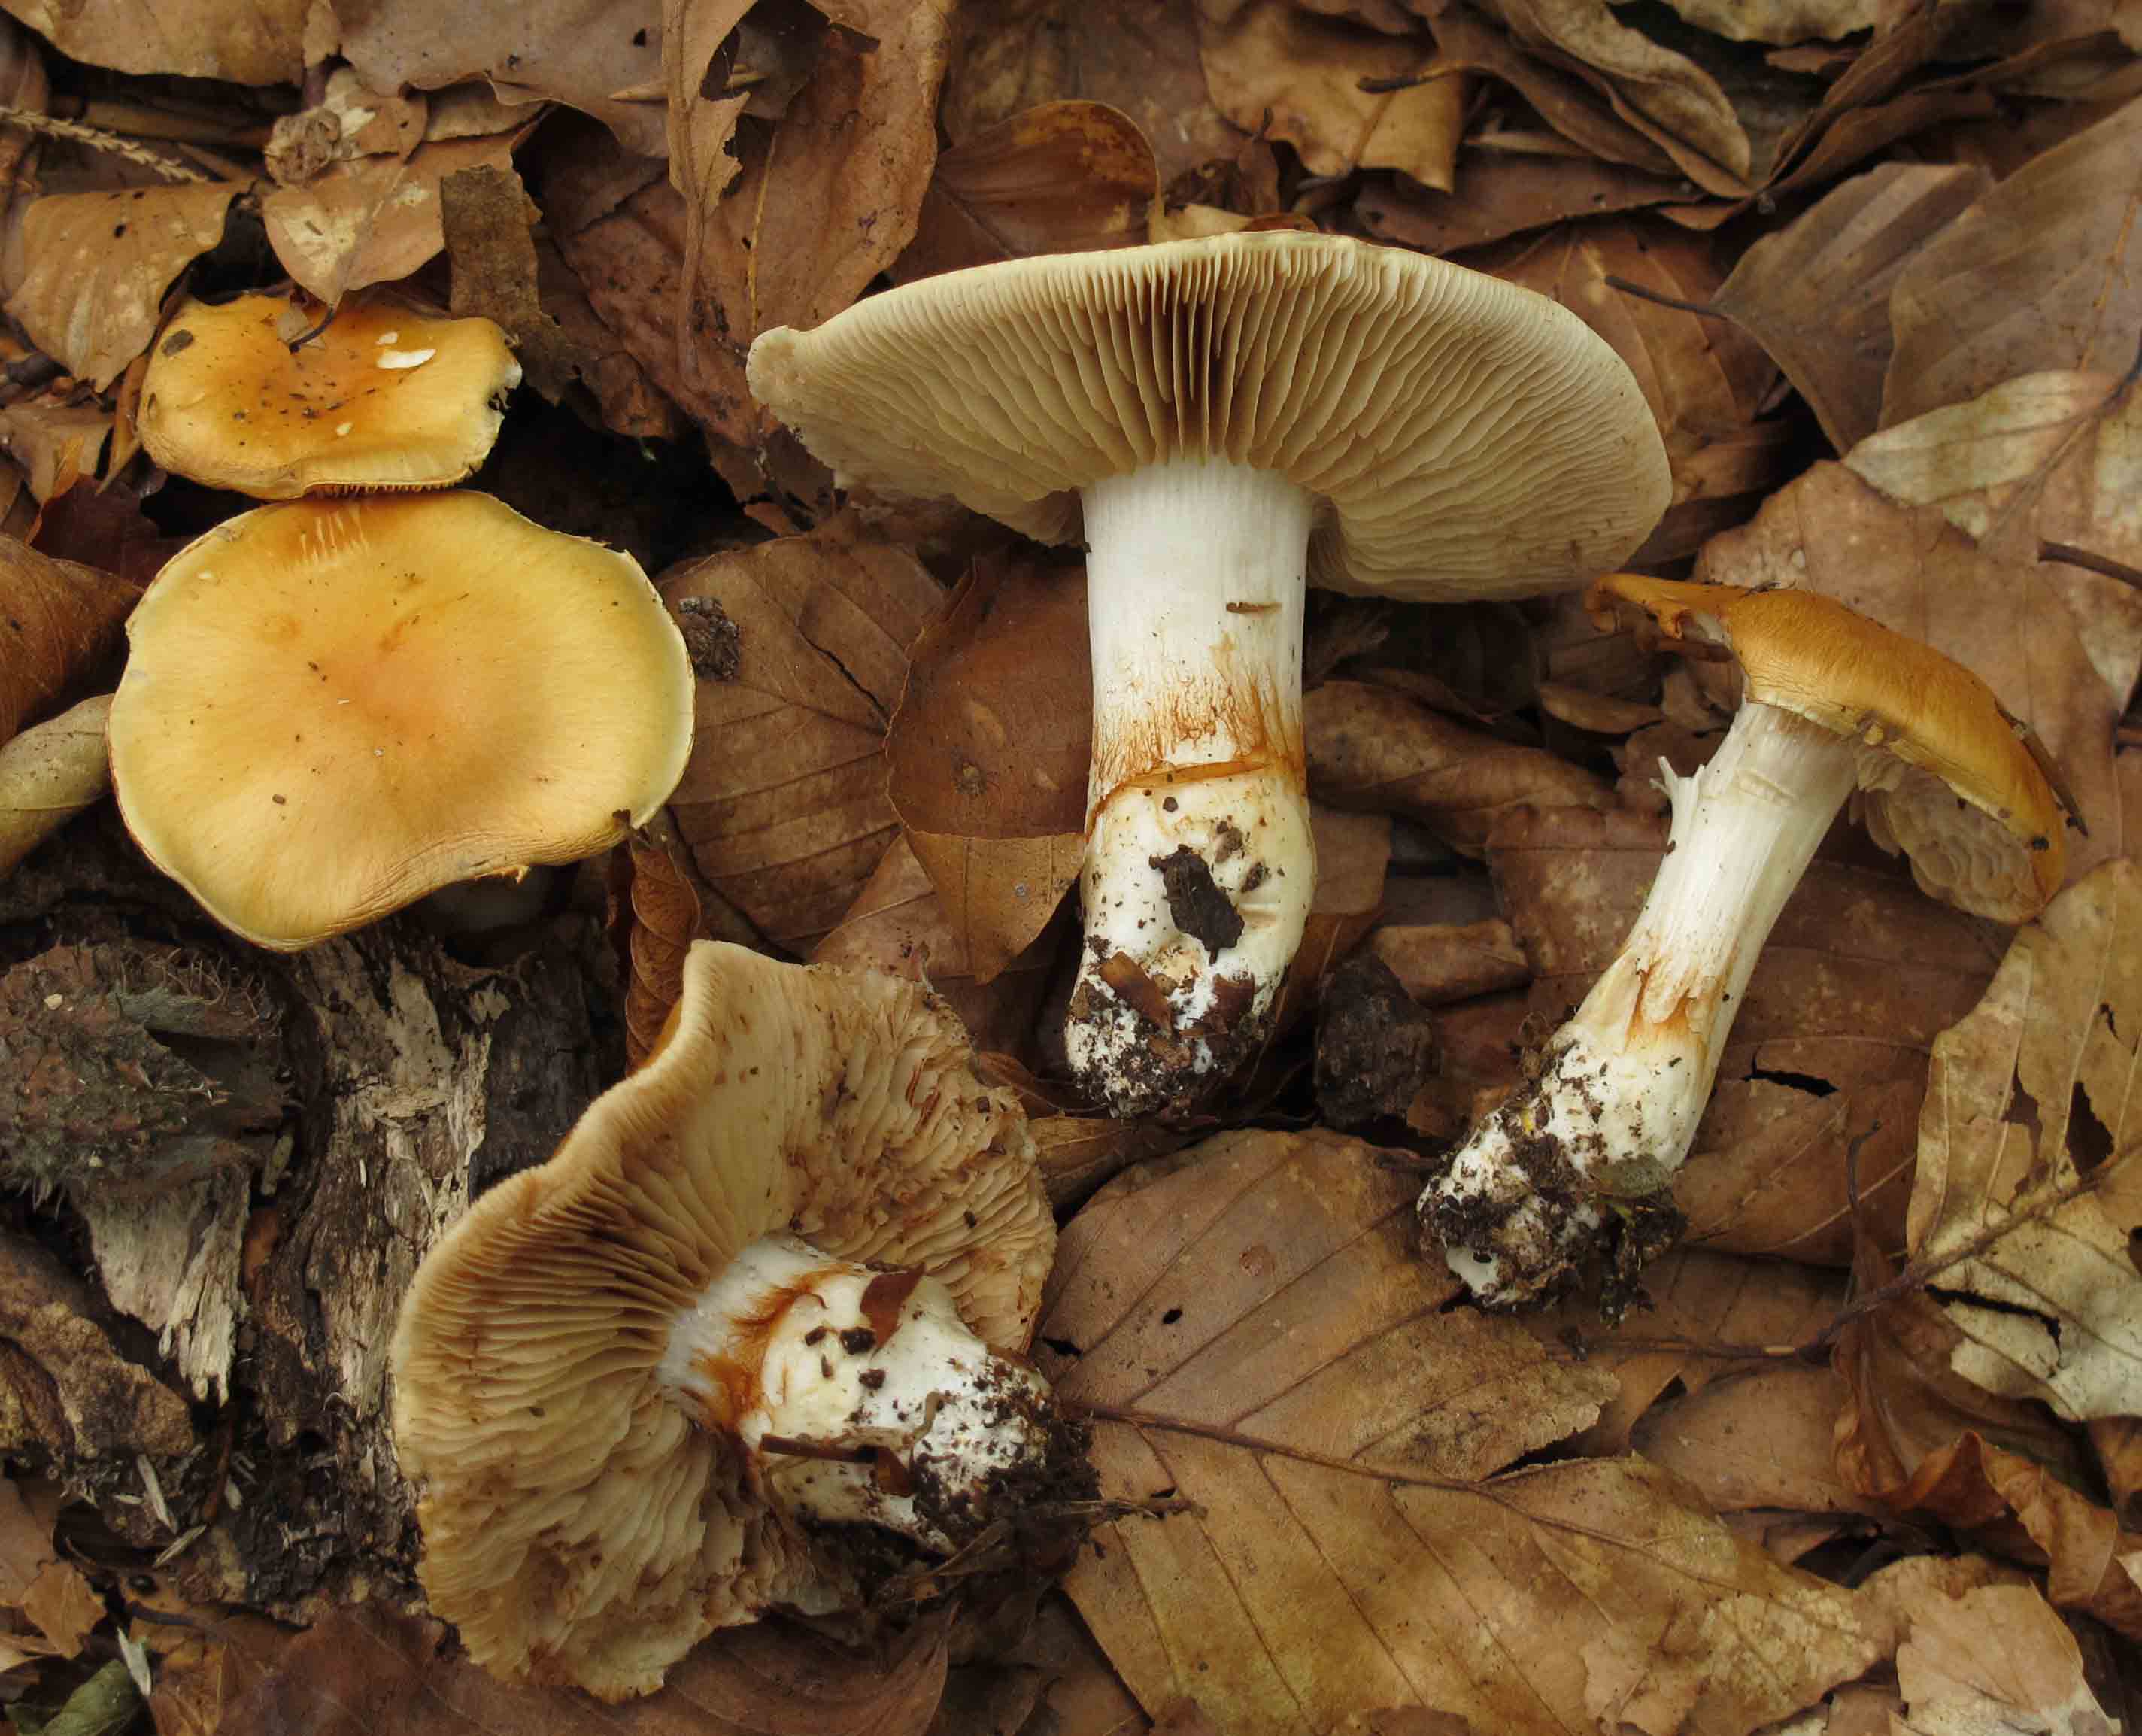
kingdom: Fungi
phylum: Basidiomycota
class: Agaricomycetes
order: Agaricales
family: Cortinariaceae
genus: Thaxterogaster
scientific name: Thaxterogaster emollitus
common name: besk slørhat
